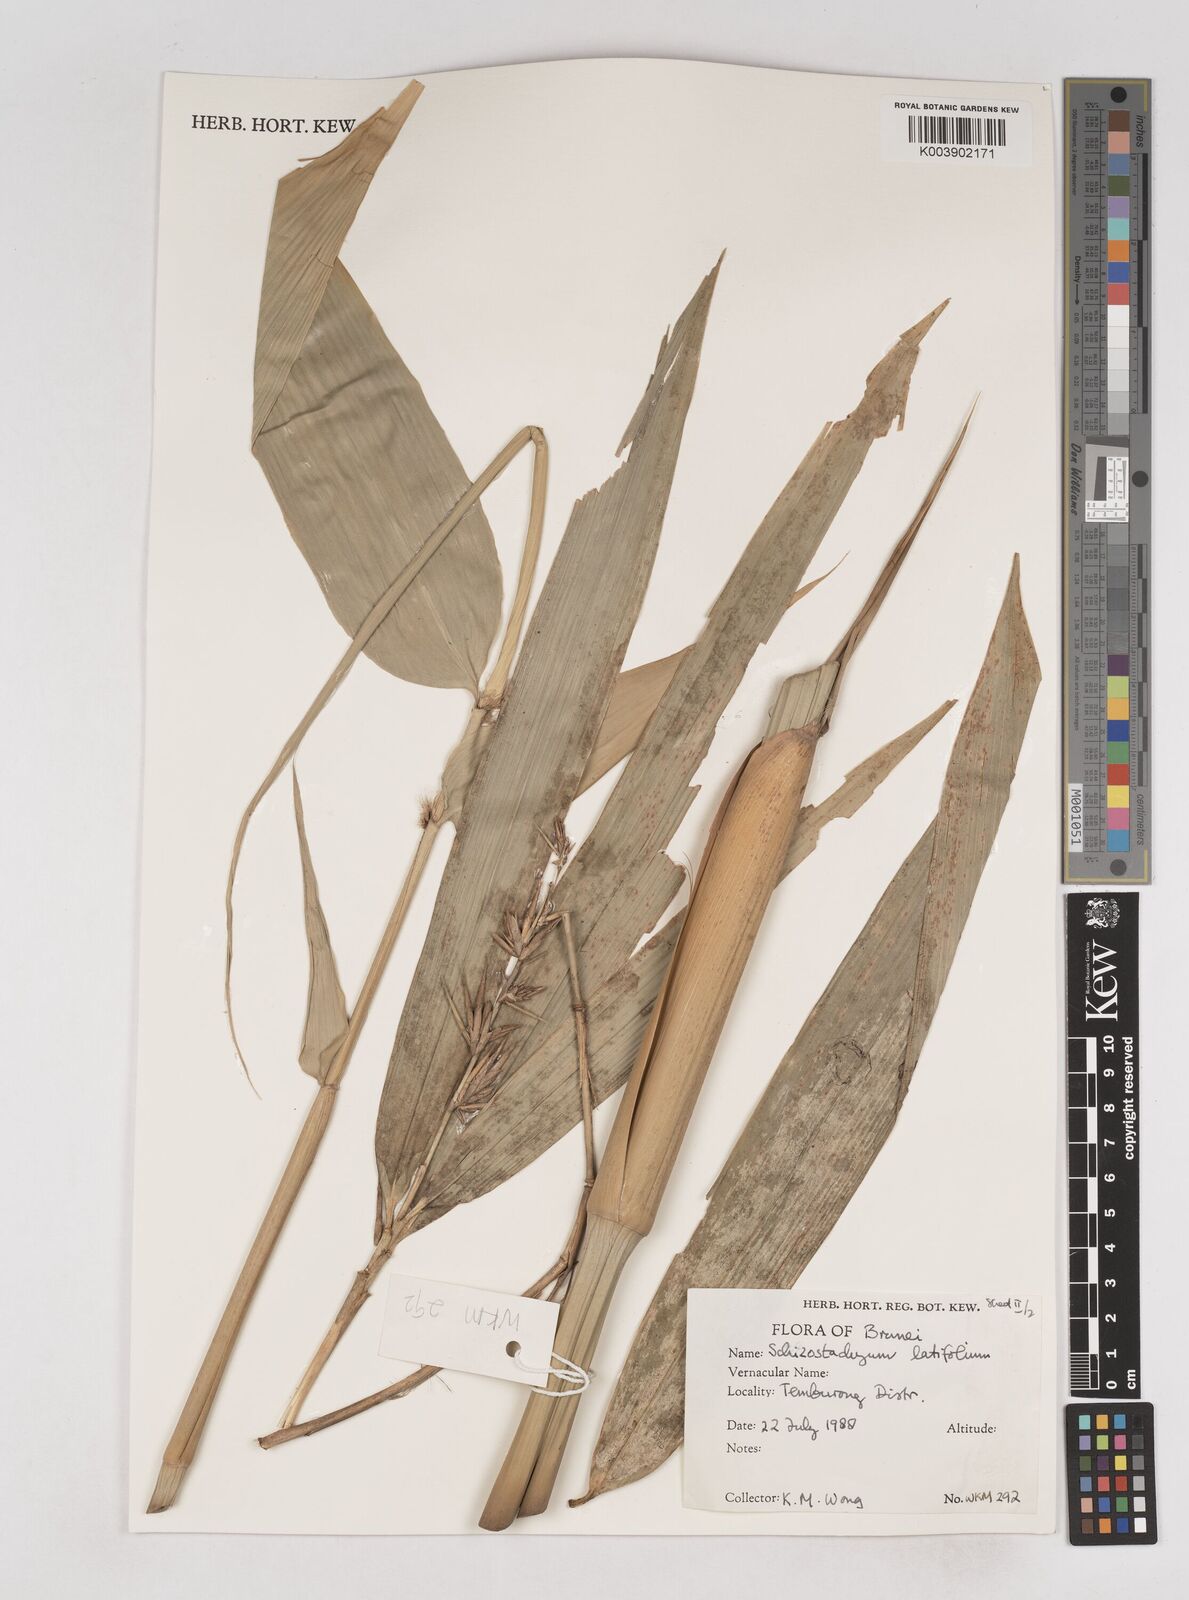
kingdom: Plantae
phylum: Tracheophyta
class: Liliopsida
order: Poales
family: Poaceae
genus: Schizostachyum
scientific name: Schizostachyum latifolium
